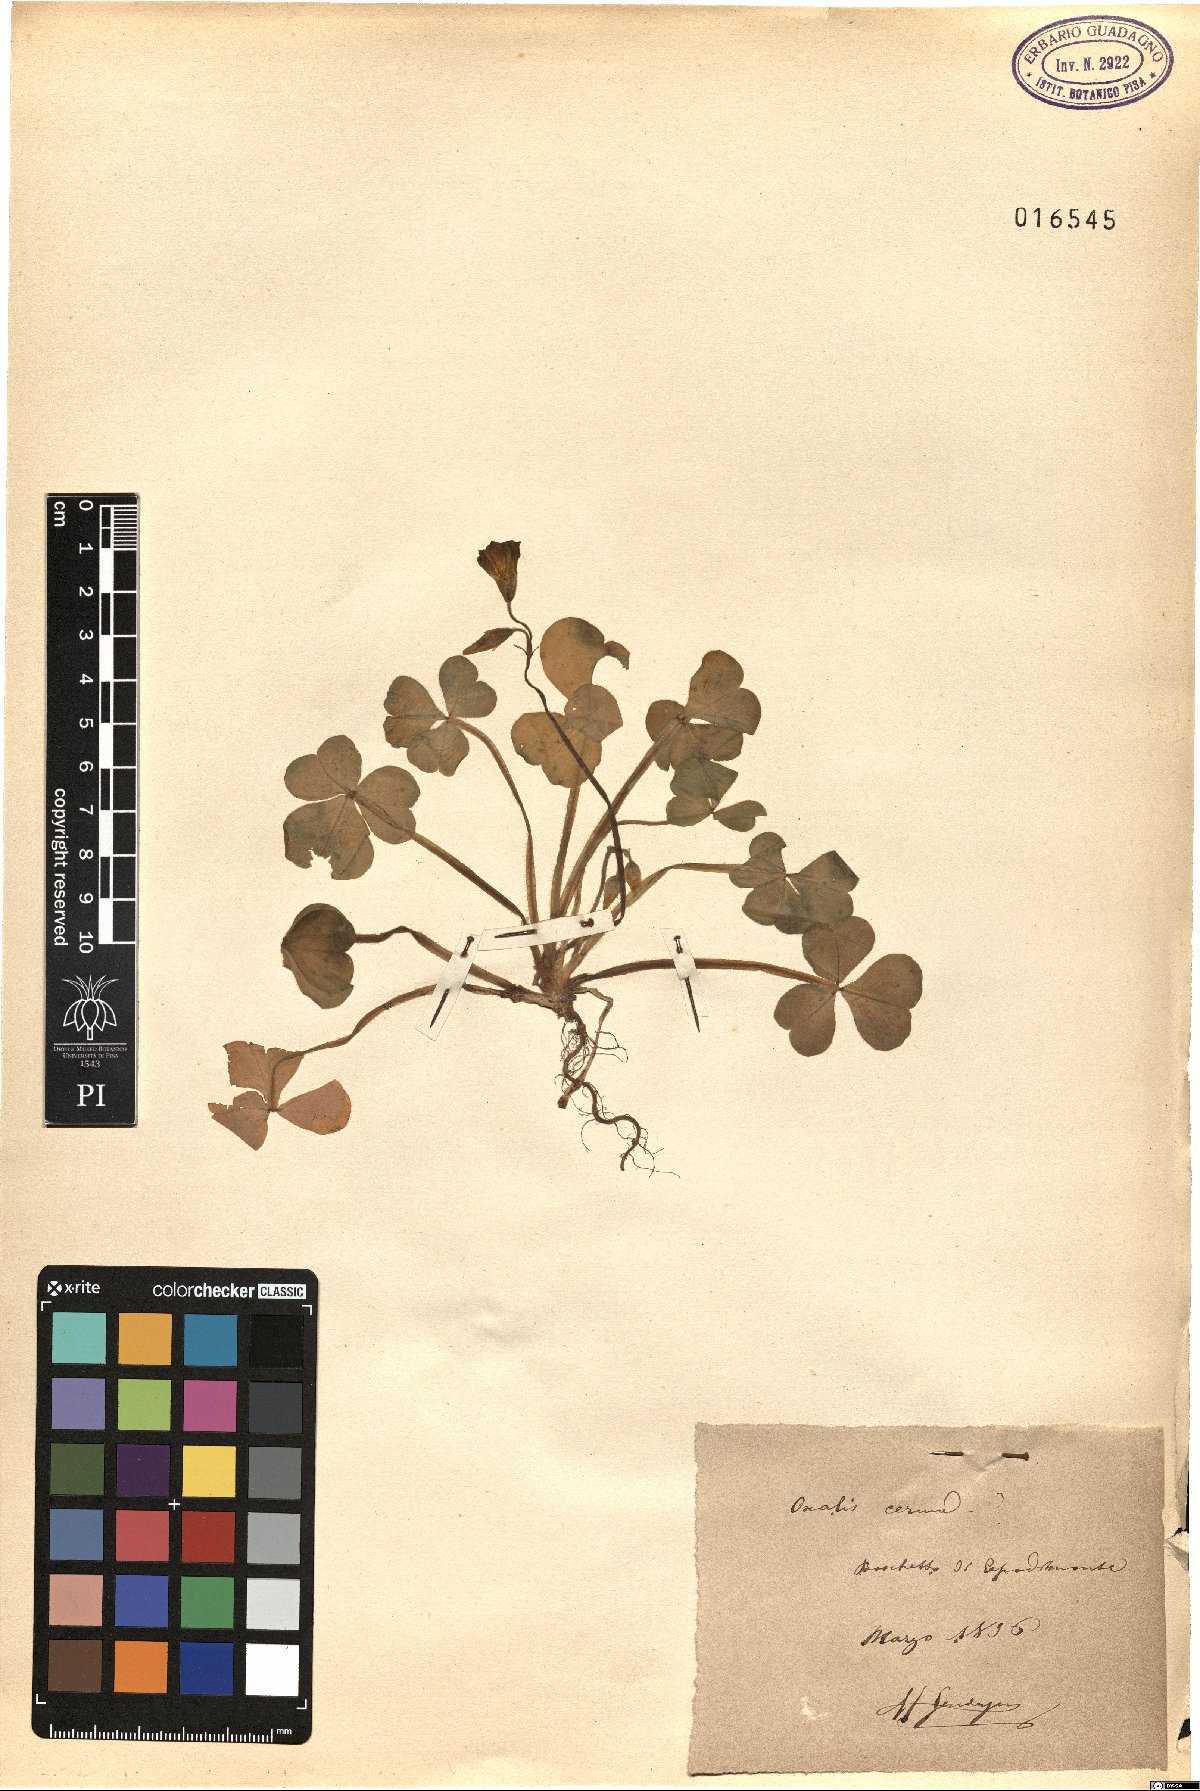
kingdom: Plantae
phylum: Tracheophyta
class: Magnoliopsida
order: Oxalidales
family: Oxalidaceae
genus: Oxalis
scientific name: Oxalis pes-caprae
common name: Bermuda-buttercup
